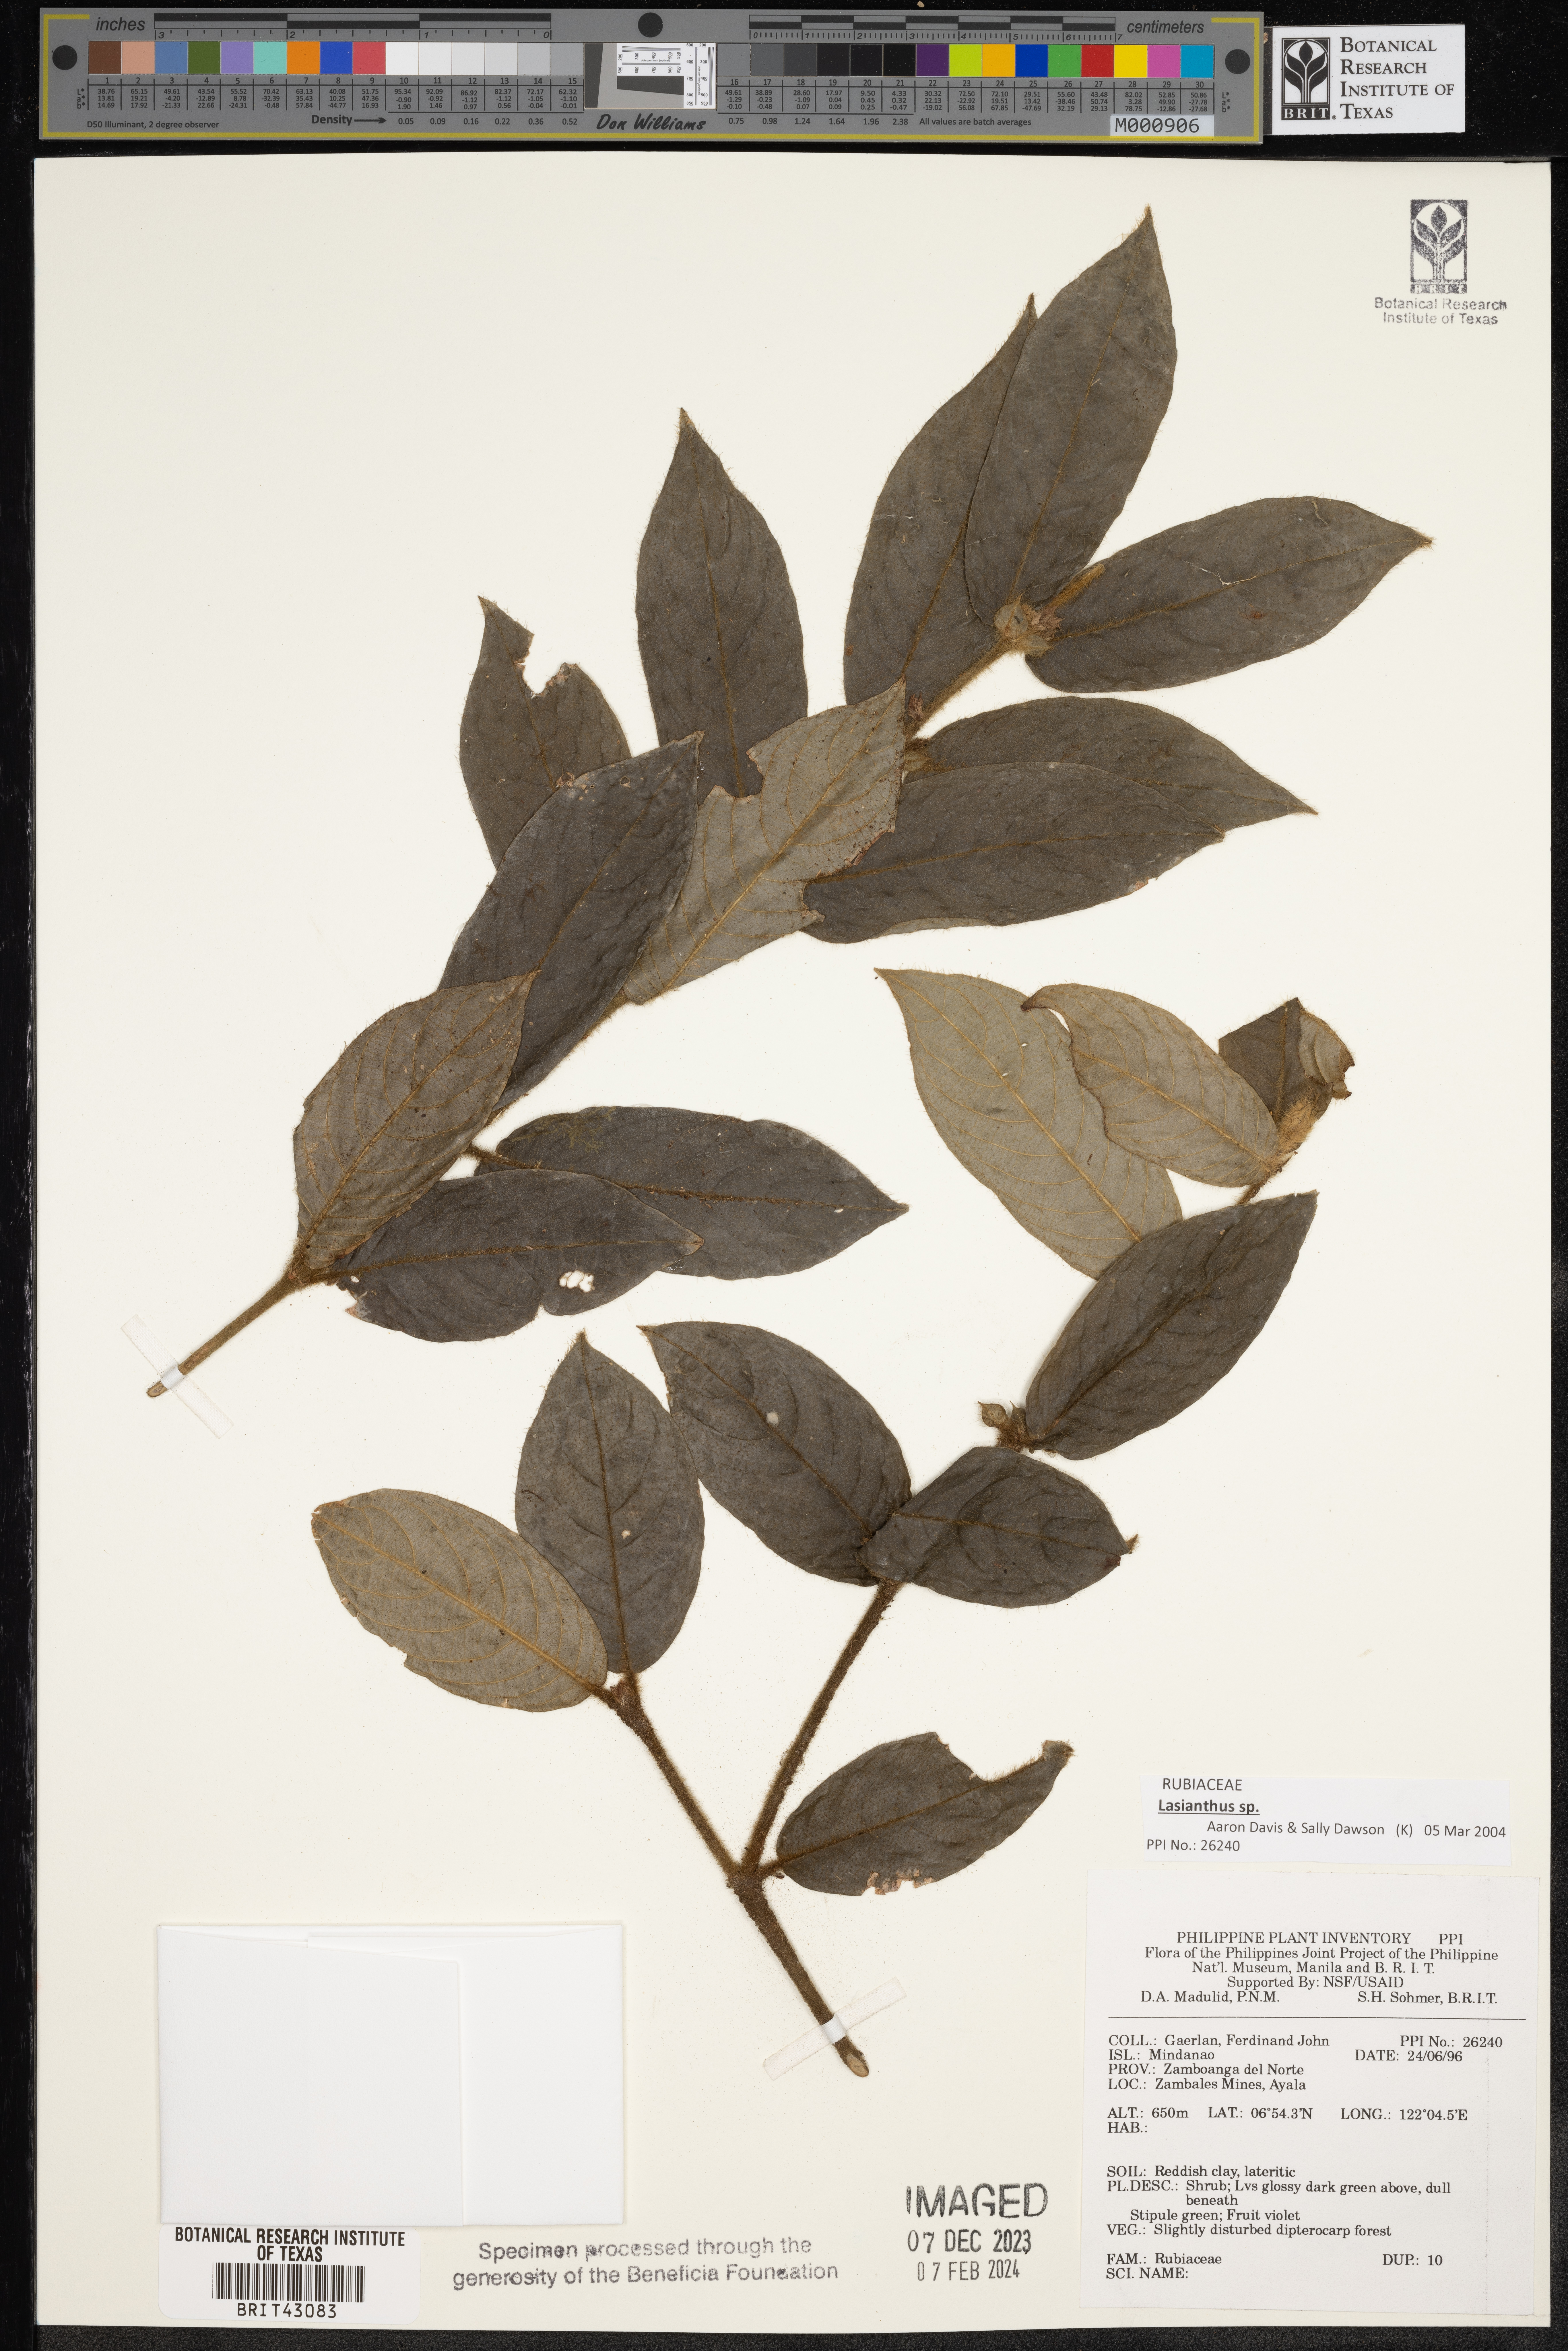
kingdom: Plantae
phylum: Tracheophyta
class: Magnoliopsida
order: Gentianales
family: Rubiaceae
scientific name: Rubiaceae
